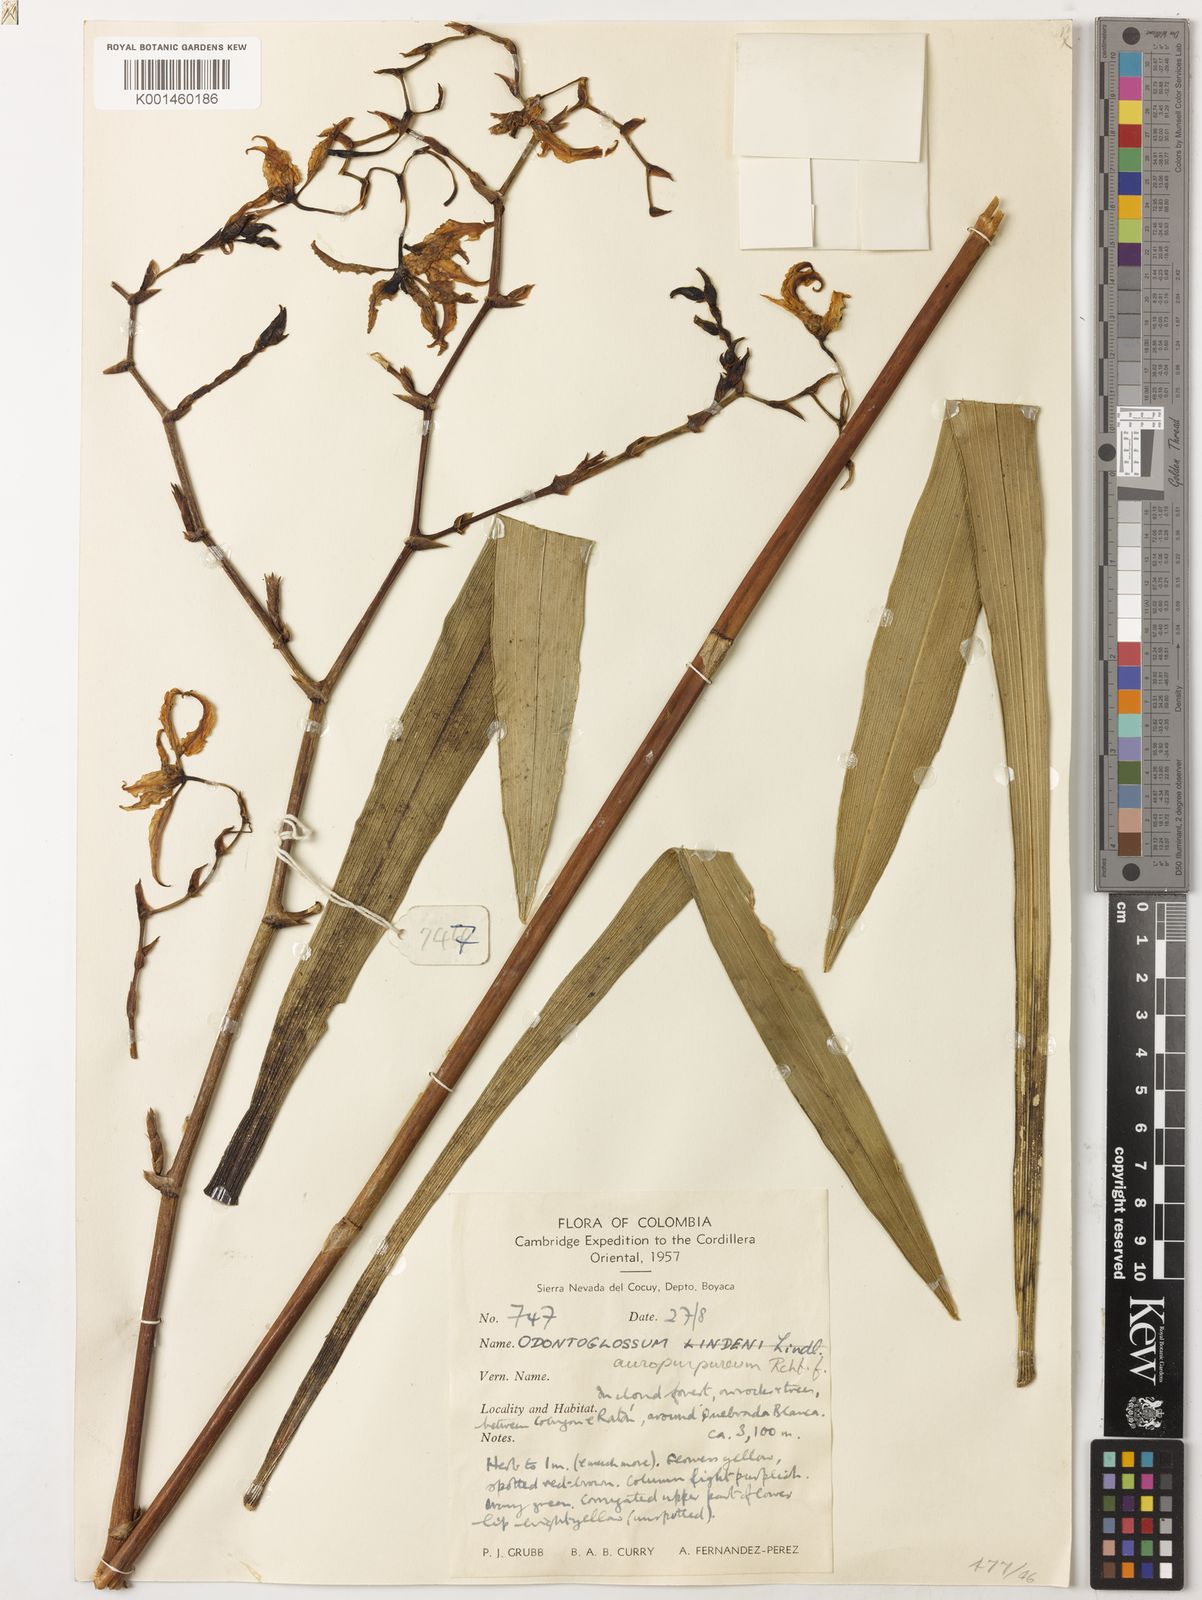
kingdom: Plantae
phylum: Tracheophyta
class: Liliopsida
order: Asparagales
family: Orchidaceae
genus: Cyrtochilum
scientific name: Cyrtochilum
